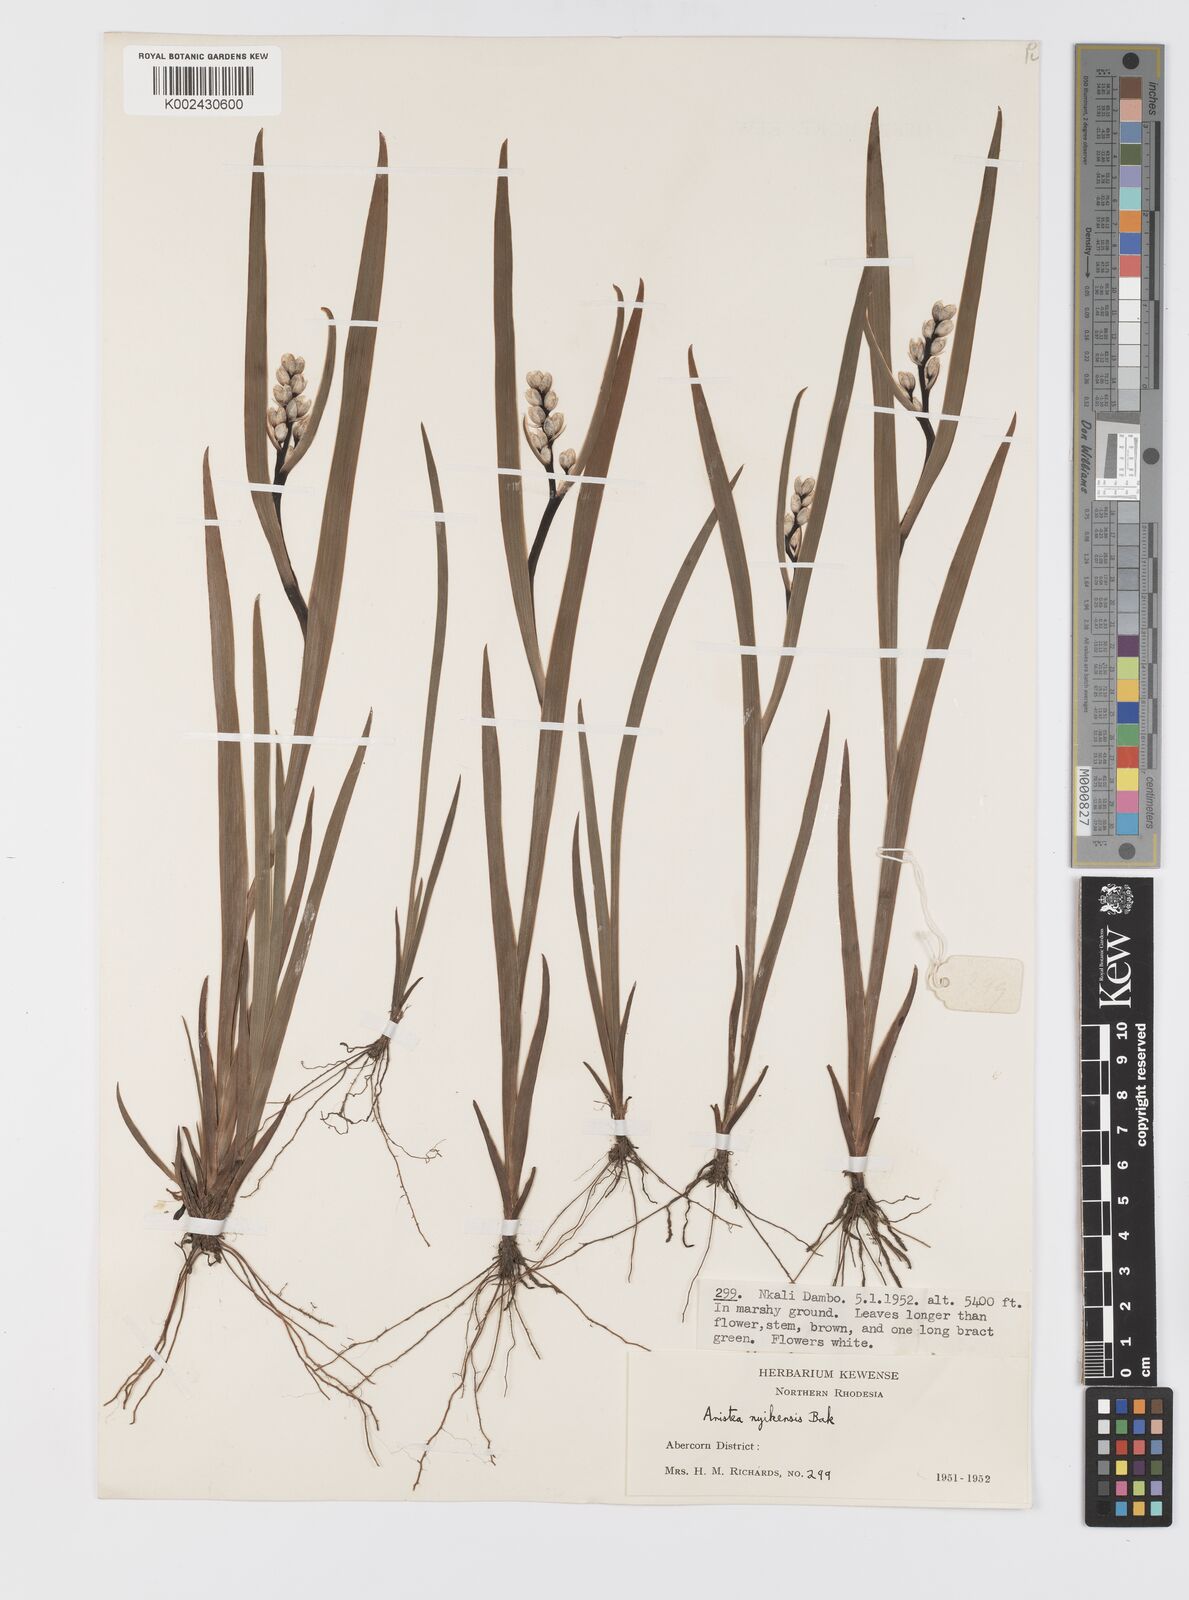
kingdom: Plantae
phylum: Tracheophyta
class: Liliopsida
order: Asparagales
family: Iridaceae
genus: Aristea
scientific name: Aristea nyikensis
